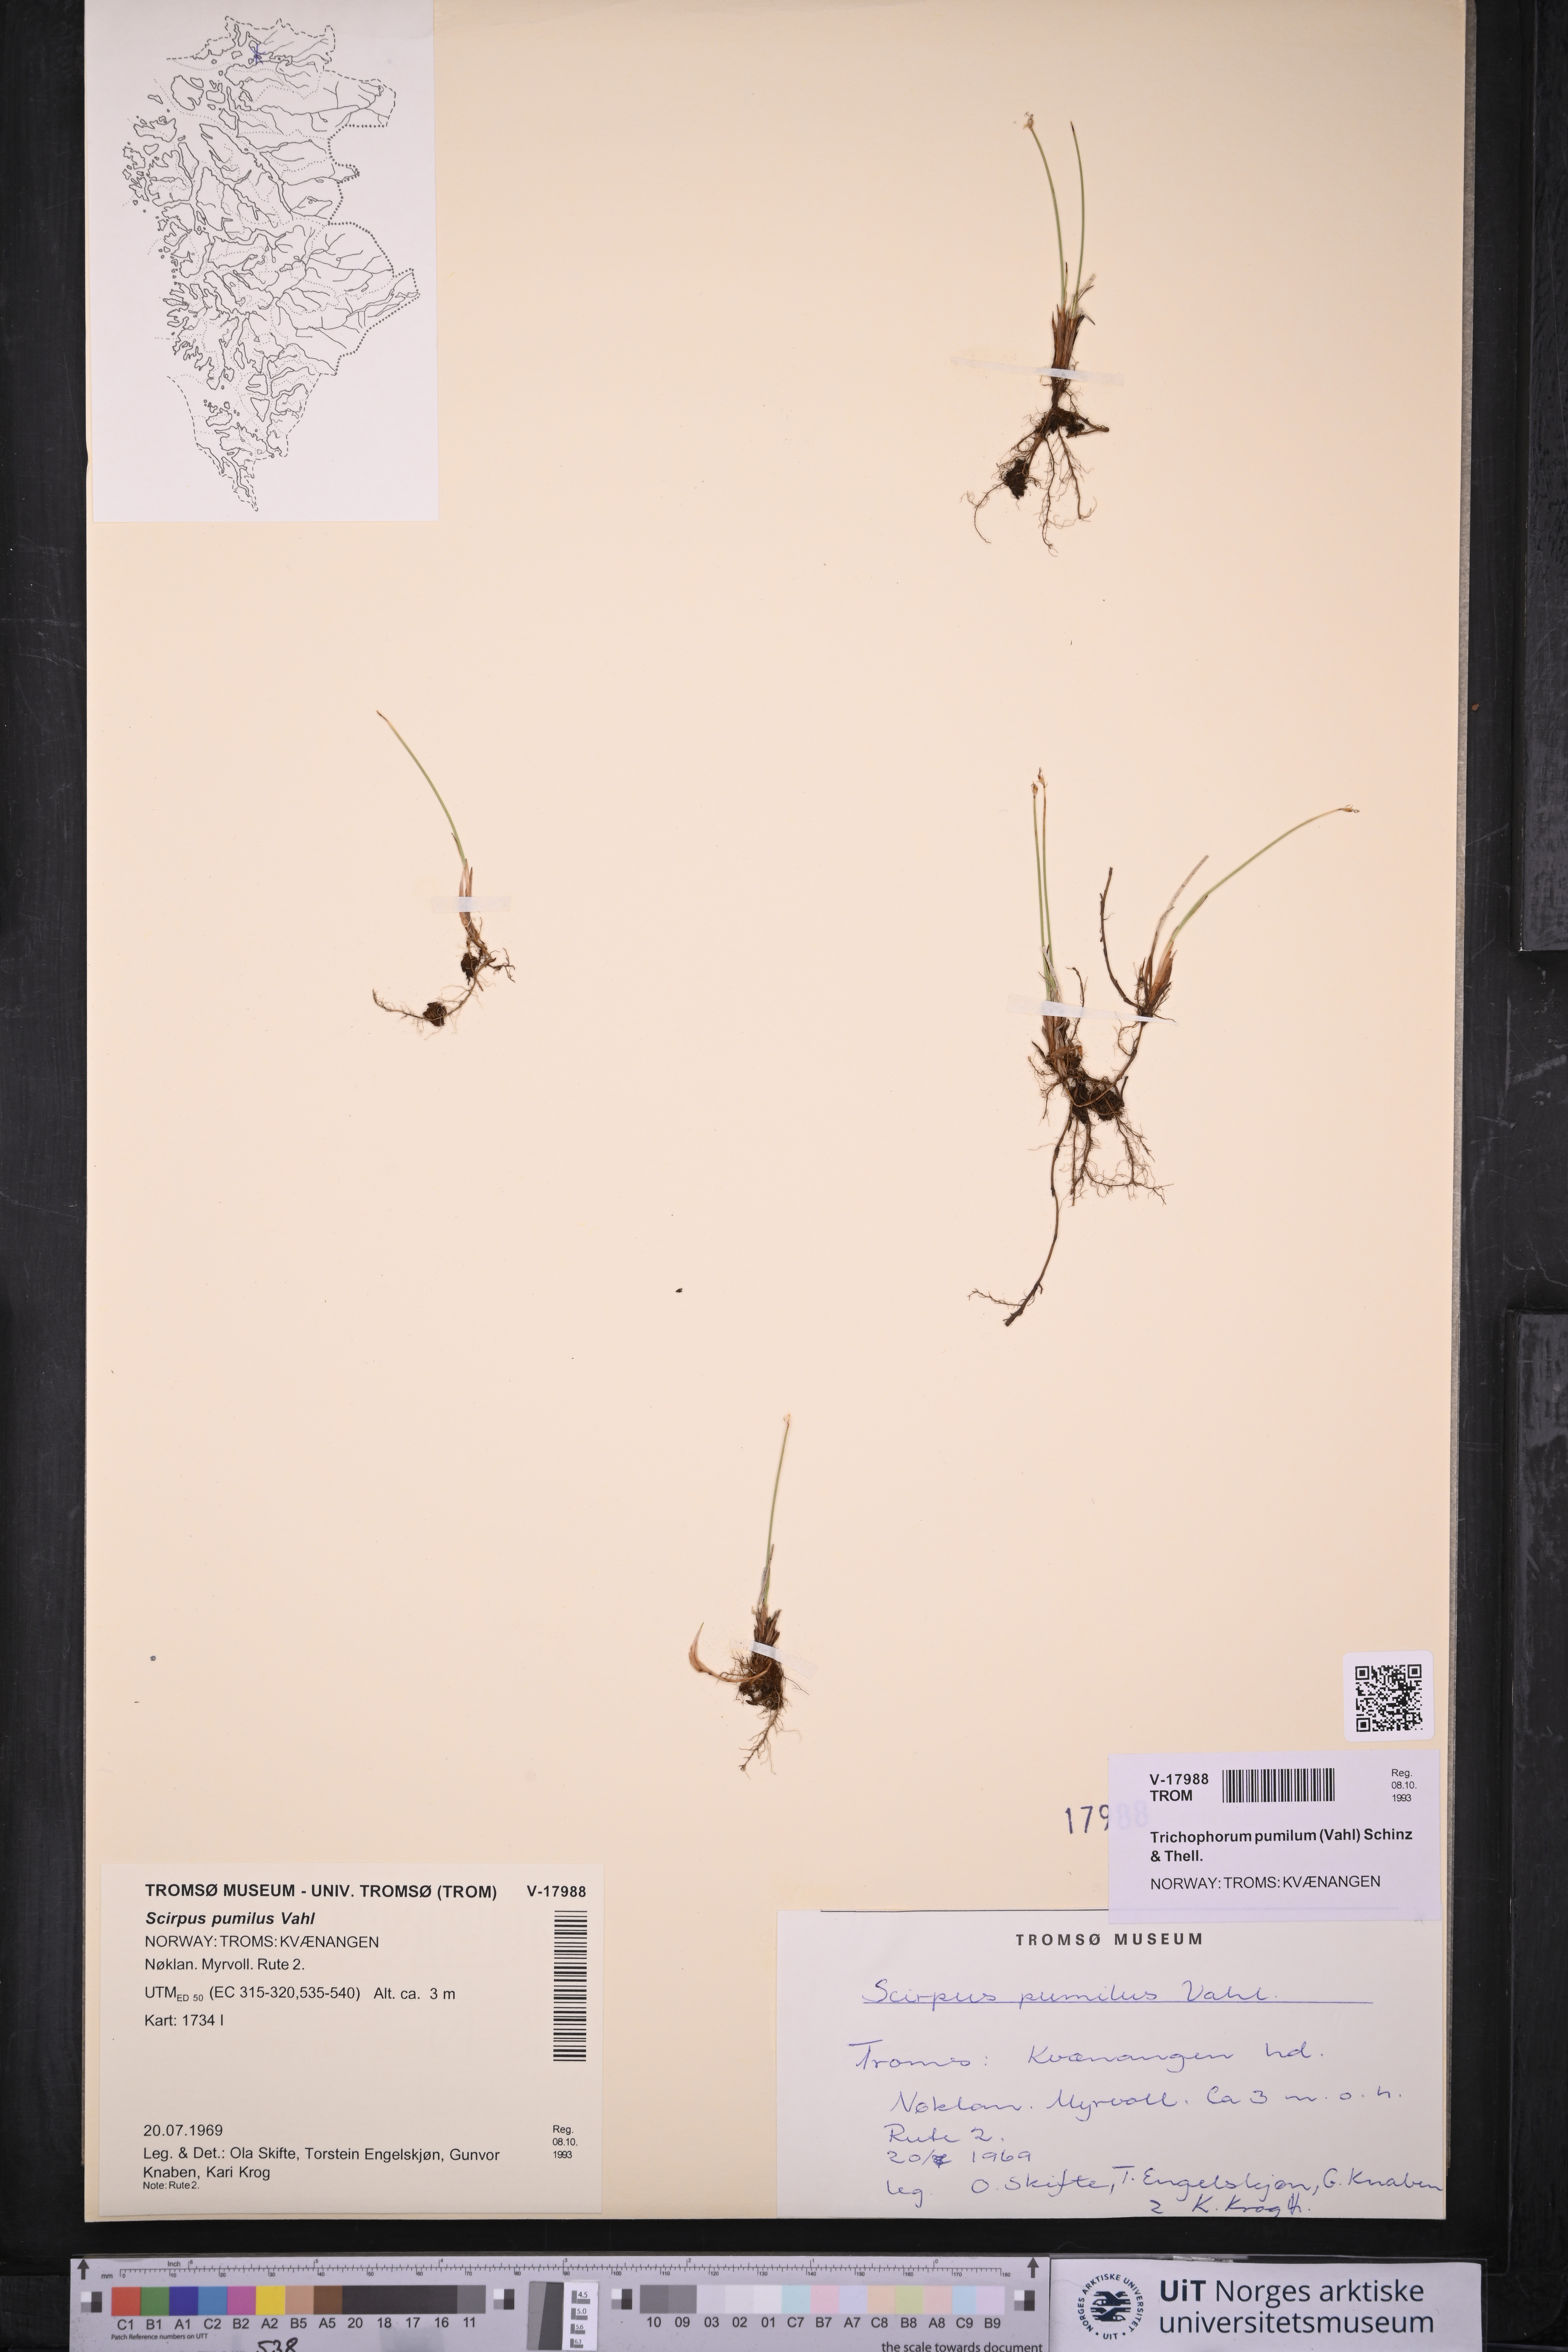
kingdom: Plantae
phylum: Tracheophyta
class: Liliopsida
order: Poales
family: Cyperaceae
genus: Trichophorum
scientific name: Trichophorum pumilum
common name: Rolland's bulrush
